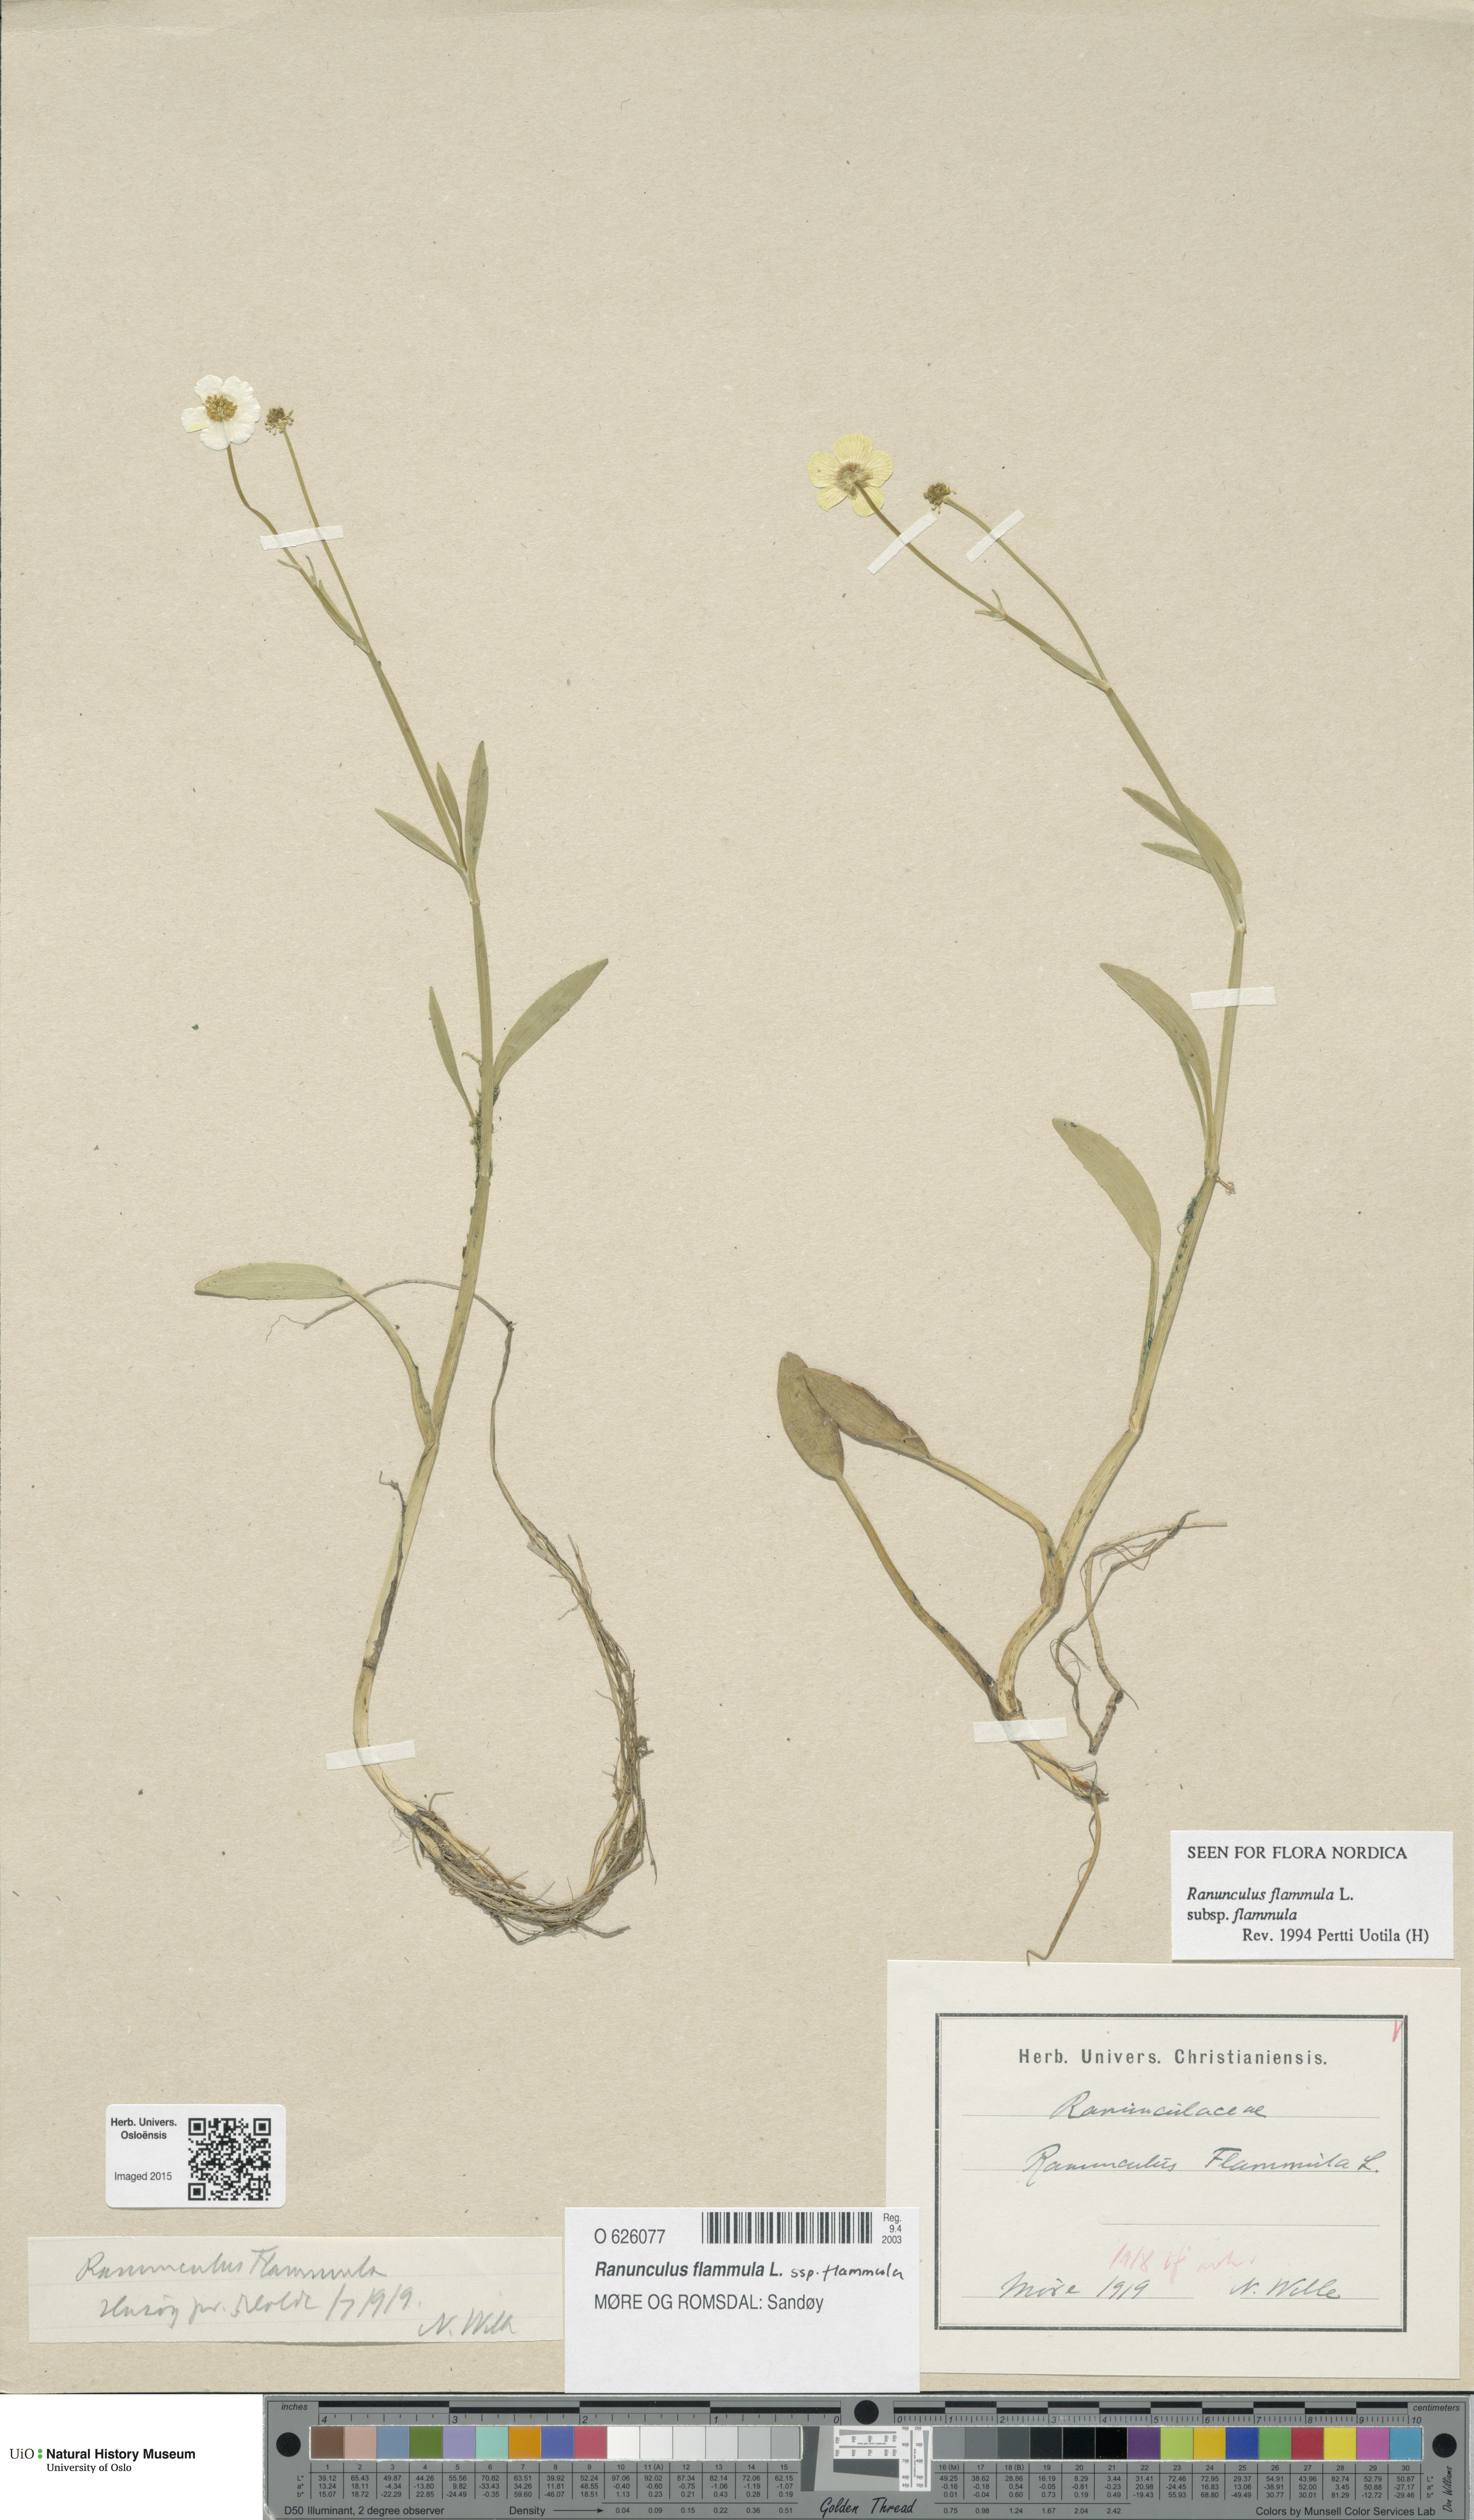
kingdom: Plantae
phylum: Tracheophyta
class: Magnoliopsida
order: Ranunculales
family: Ranunculaceae
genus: Ranunculus
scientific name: Ranunculus flammula
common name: Lesser spearwort
